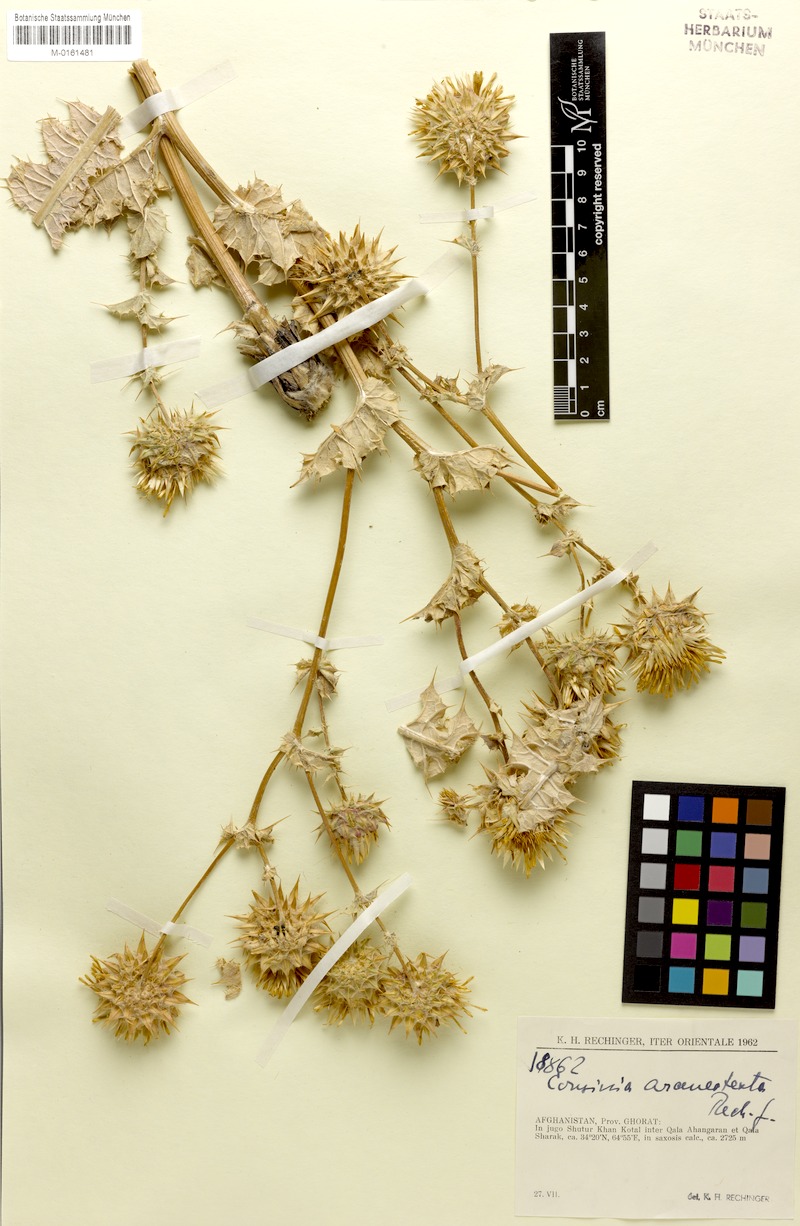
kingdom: Plantae
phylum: Tracheophyta
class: Magnoliopsida
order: Asterales
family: Asteraceae
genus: Cousinia
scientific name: Cousinia araneotexta
